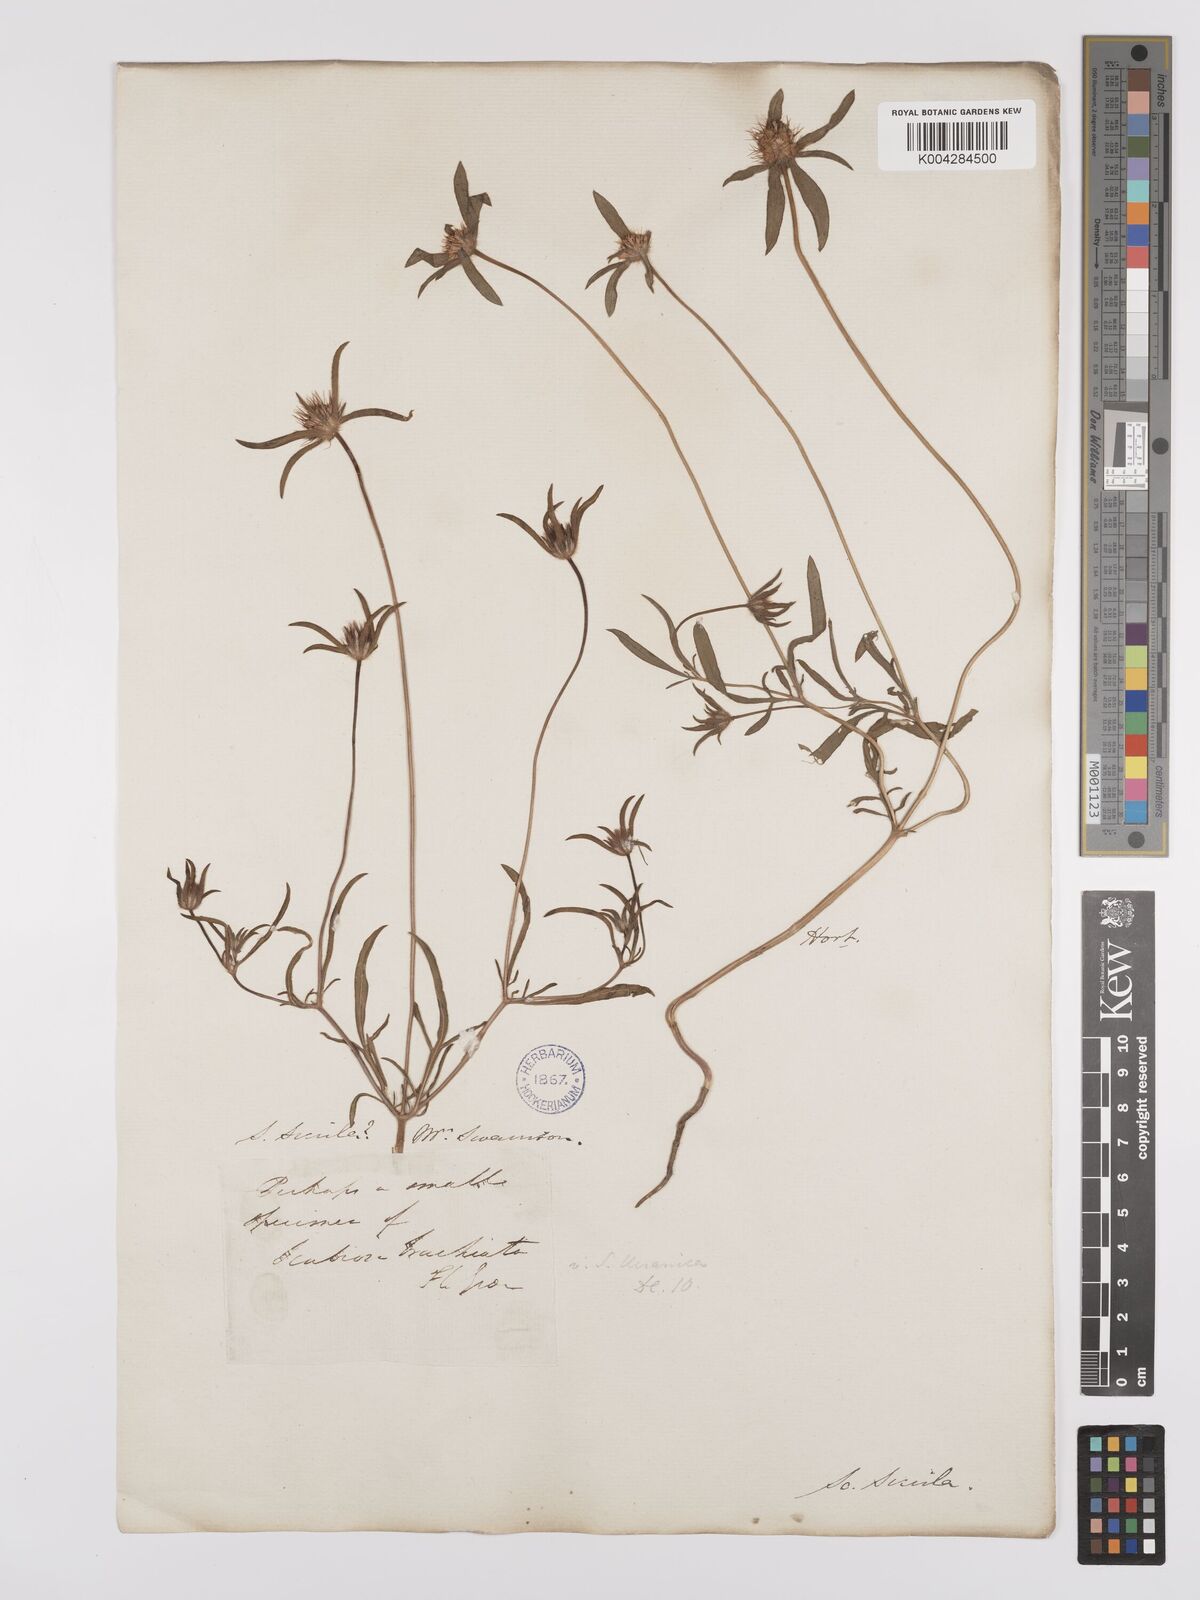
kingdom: Plantae
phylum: Tracheophyta
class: Magnoliopsida
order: Dipsacales
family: Caprifoliaceae
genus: Lomelosia
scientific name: Lomelosia divaricata
